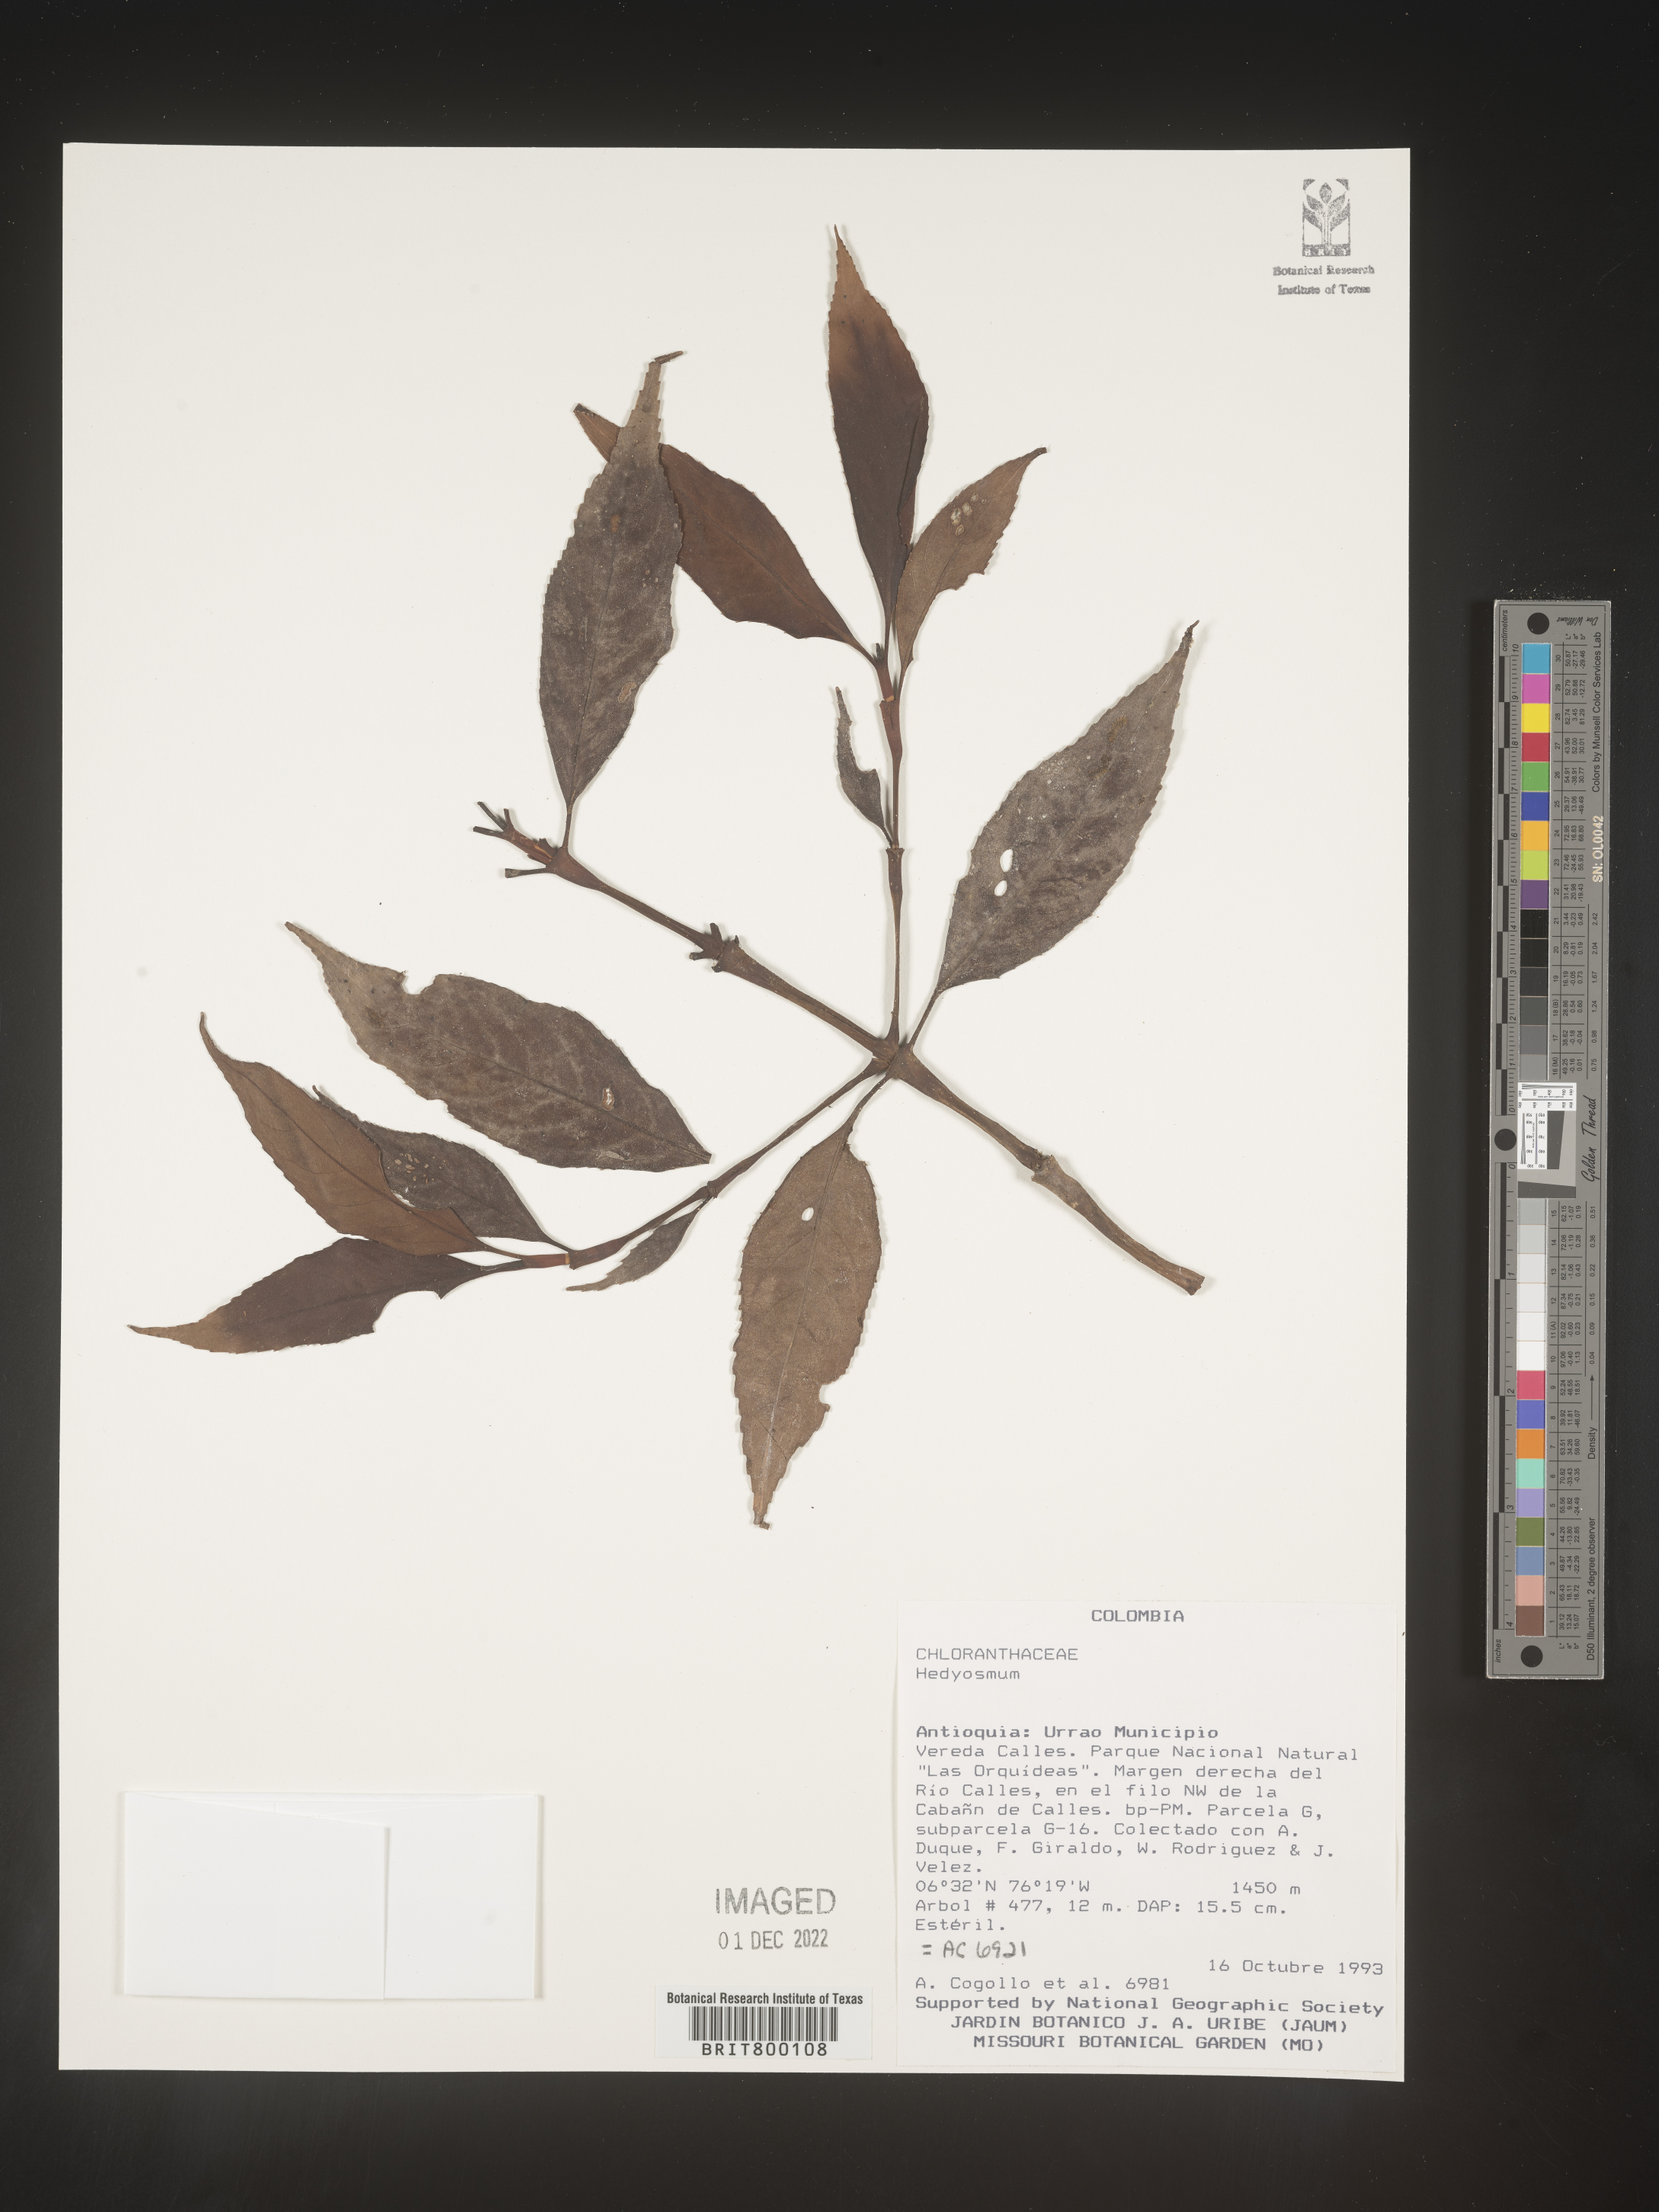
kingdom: Plantae
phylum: Tracheophyta
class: Magnoliopsida
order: Chloranthales
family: Chloranthaceae
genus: Hedyosmum
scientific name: Hedyosmum
